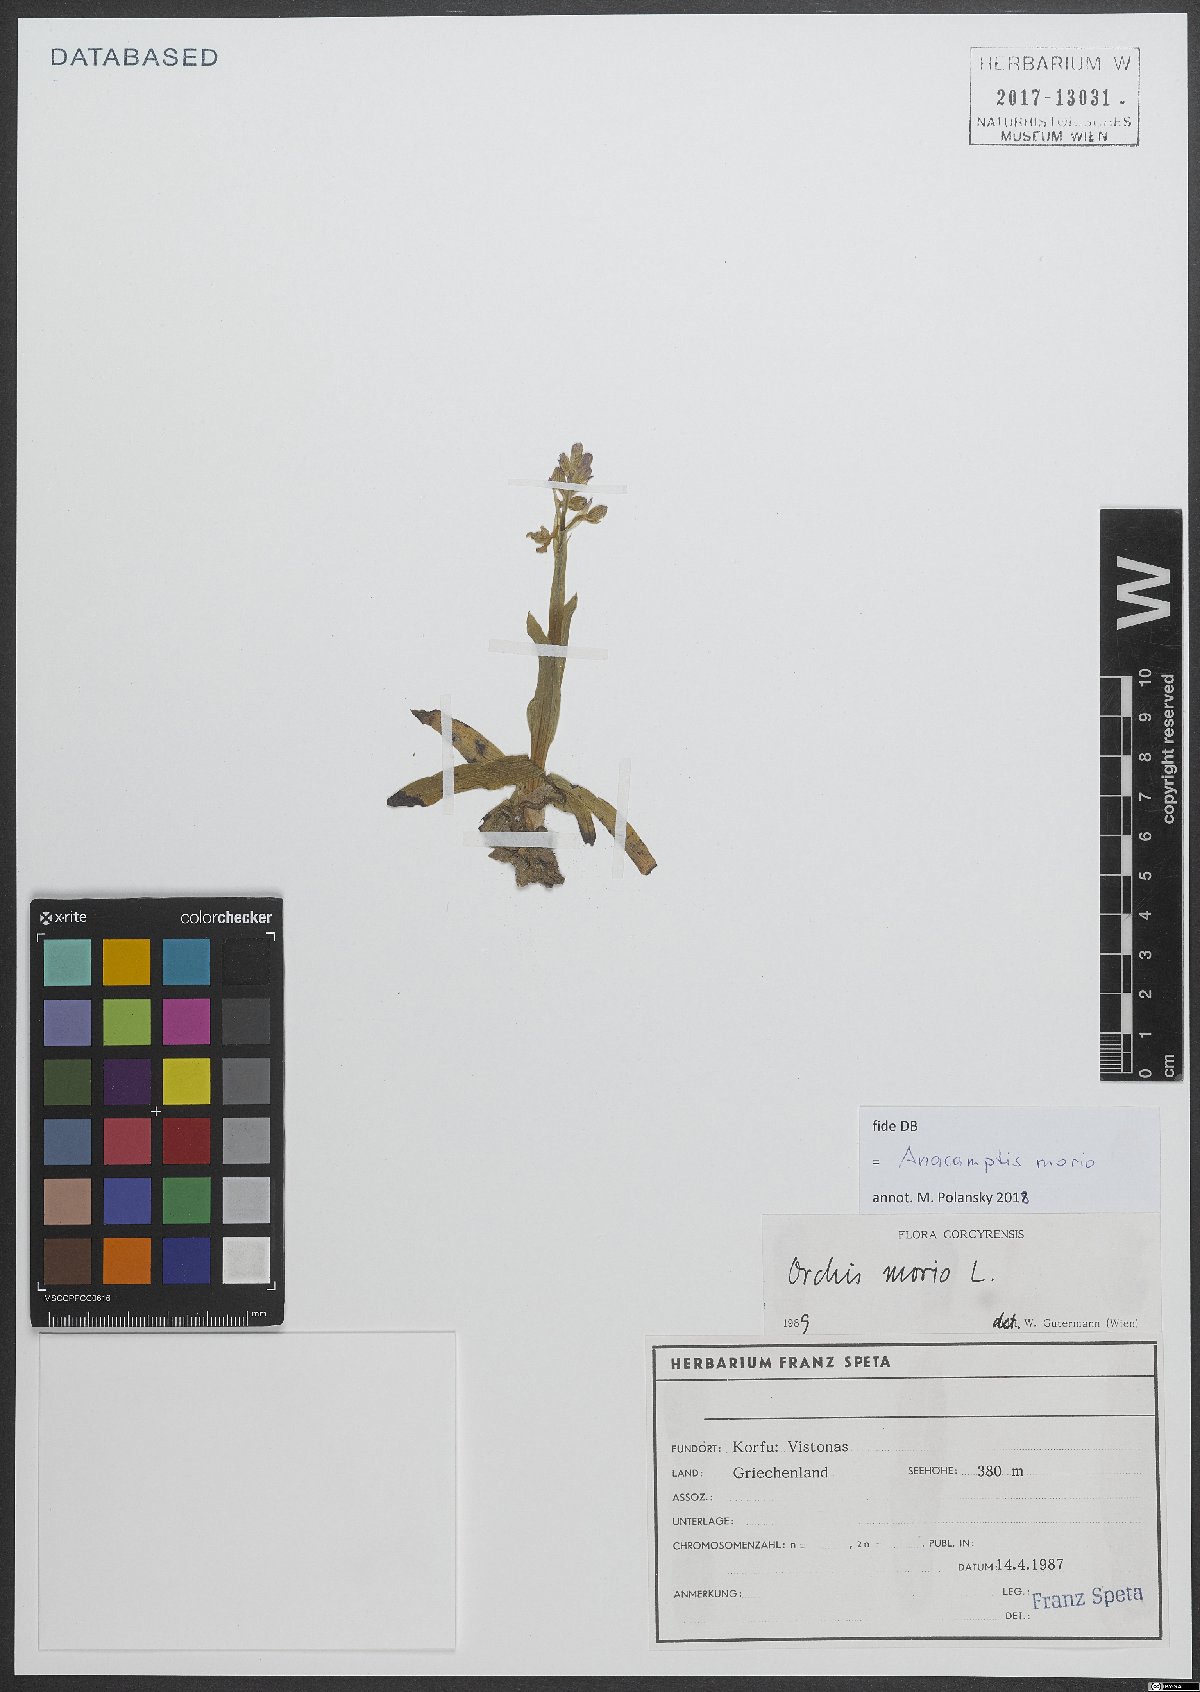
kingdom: Plantae
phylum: Tracheophyta
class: Liliopsida
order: Asparagales
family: Orchidaceae
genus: Anacamptis
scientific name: Anacamptis morio
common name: Green-winged orchid
